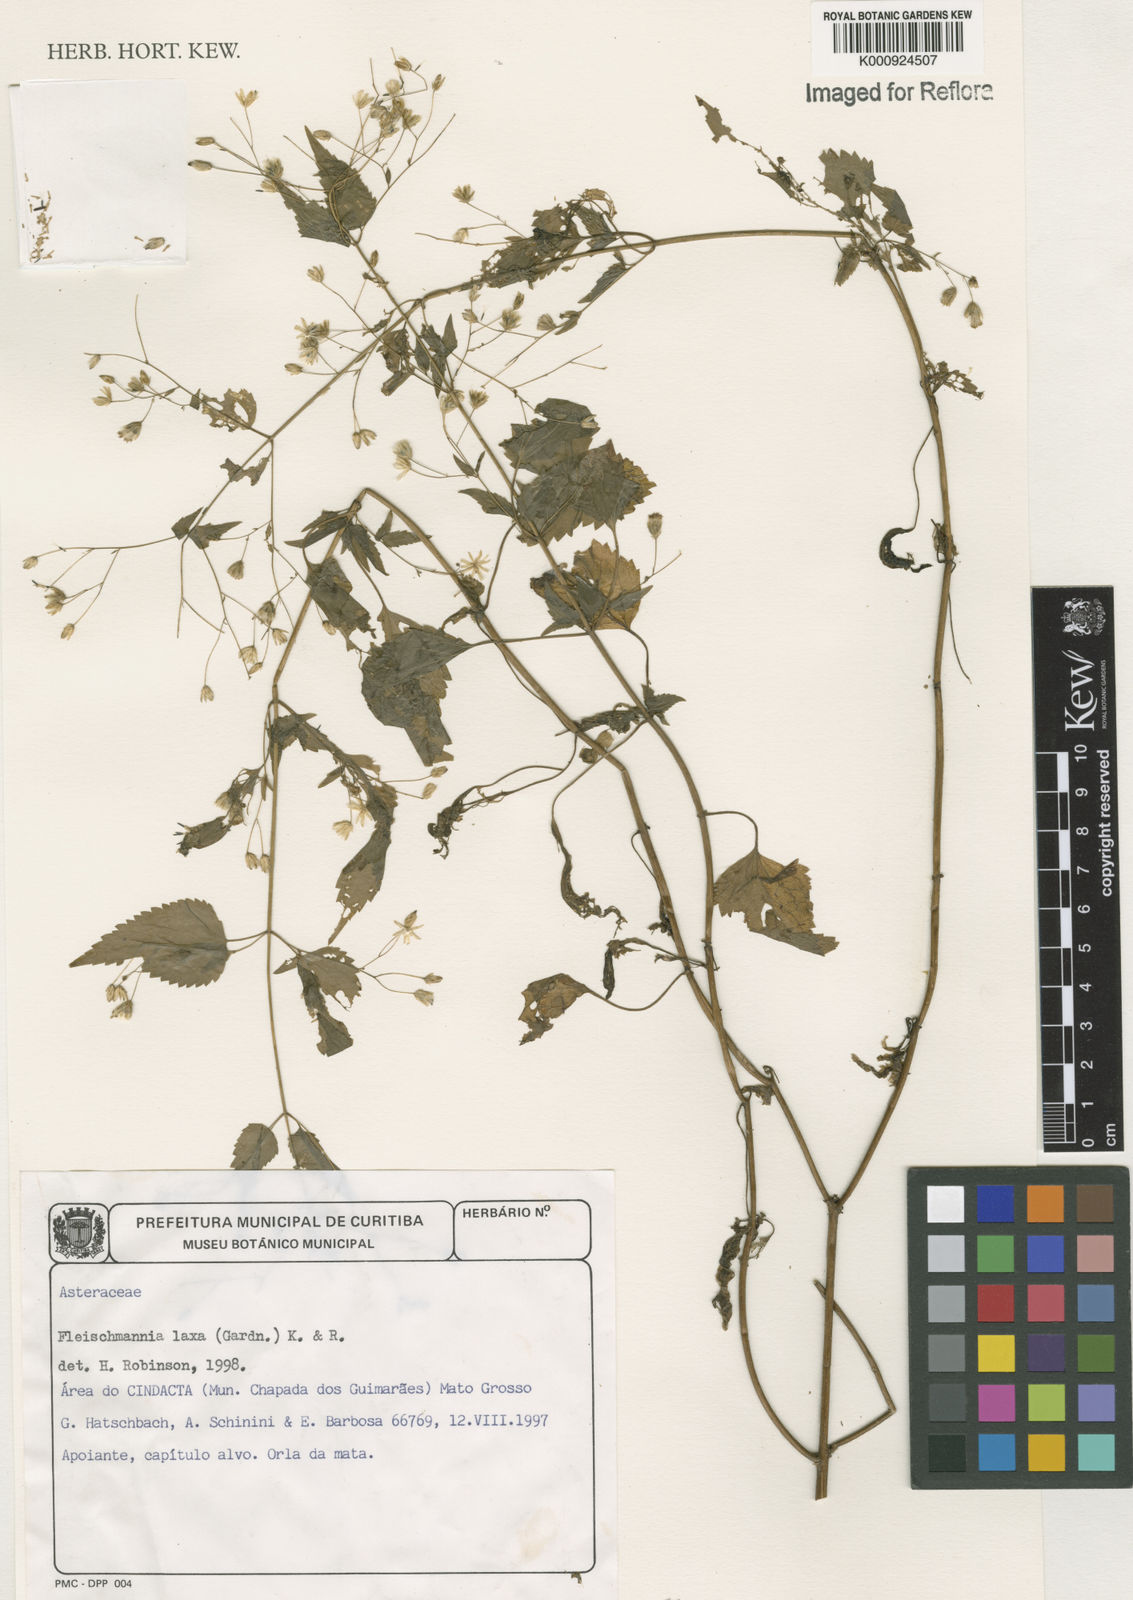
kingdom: Plantae
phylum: Tracheophyta
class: Magnoliopsida
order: Asterales
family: Asteraceae
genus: Fleischmannia
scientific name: Fleischmannia laxa
